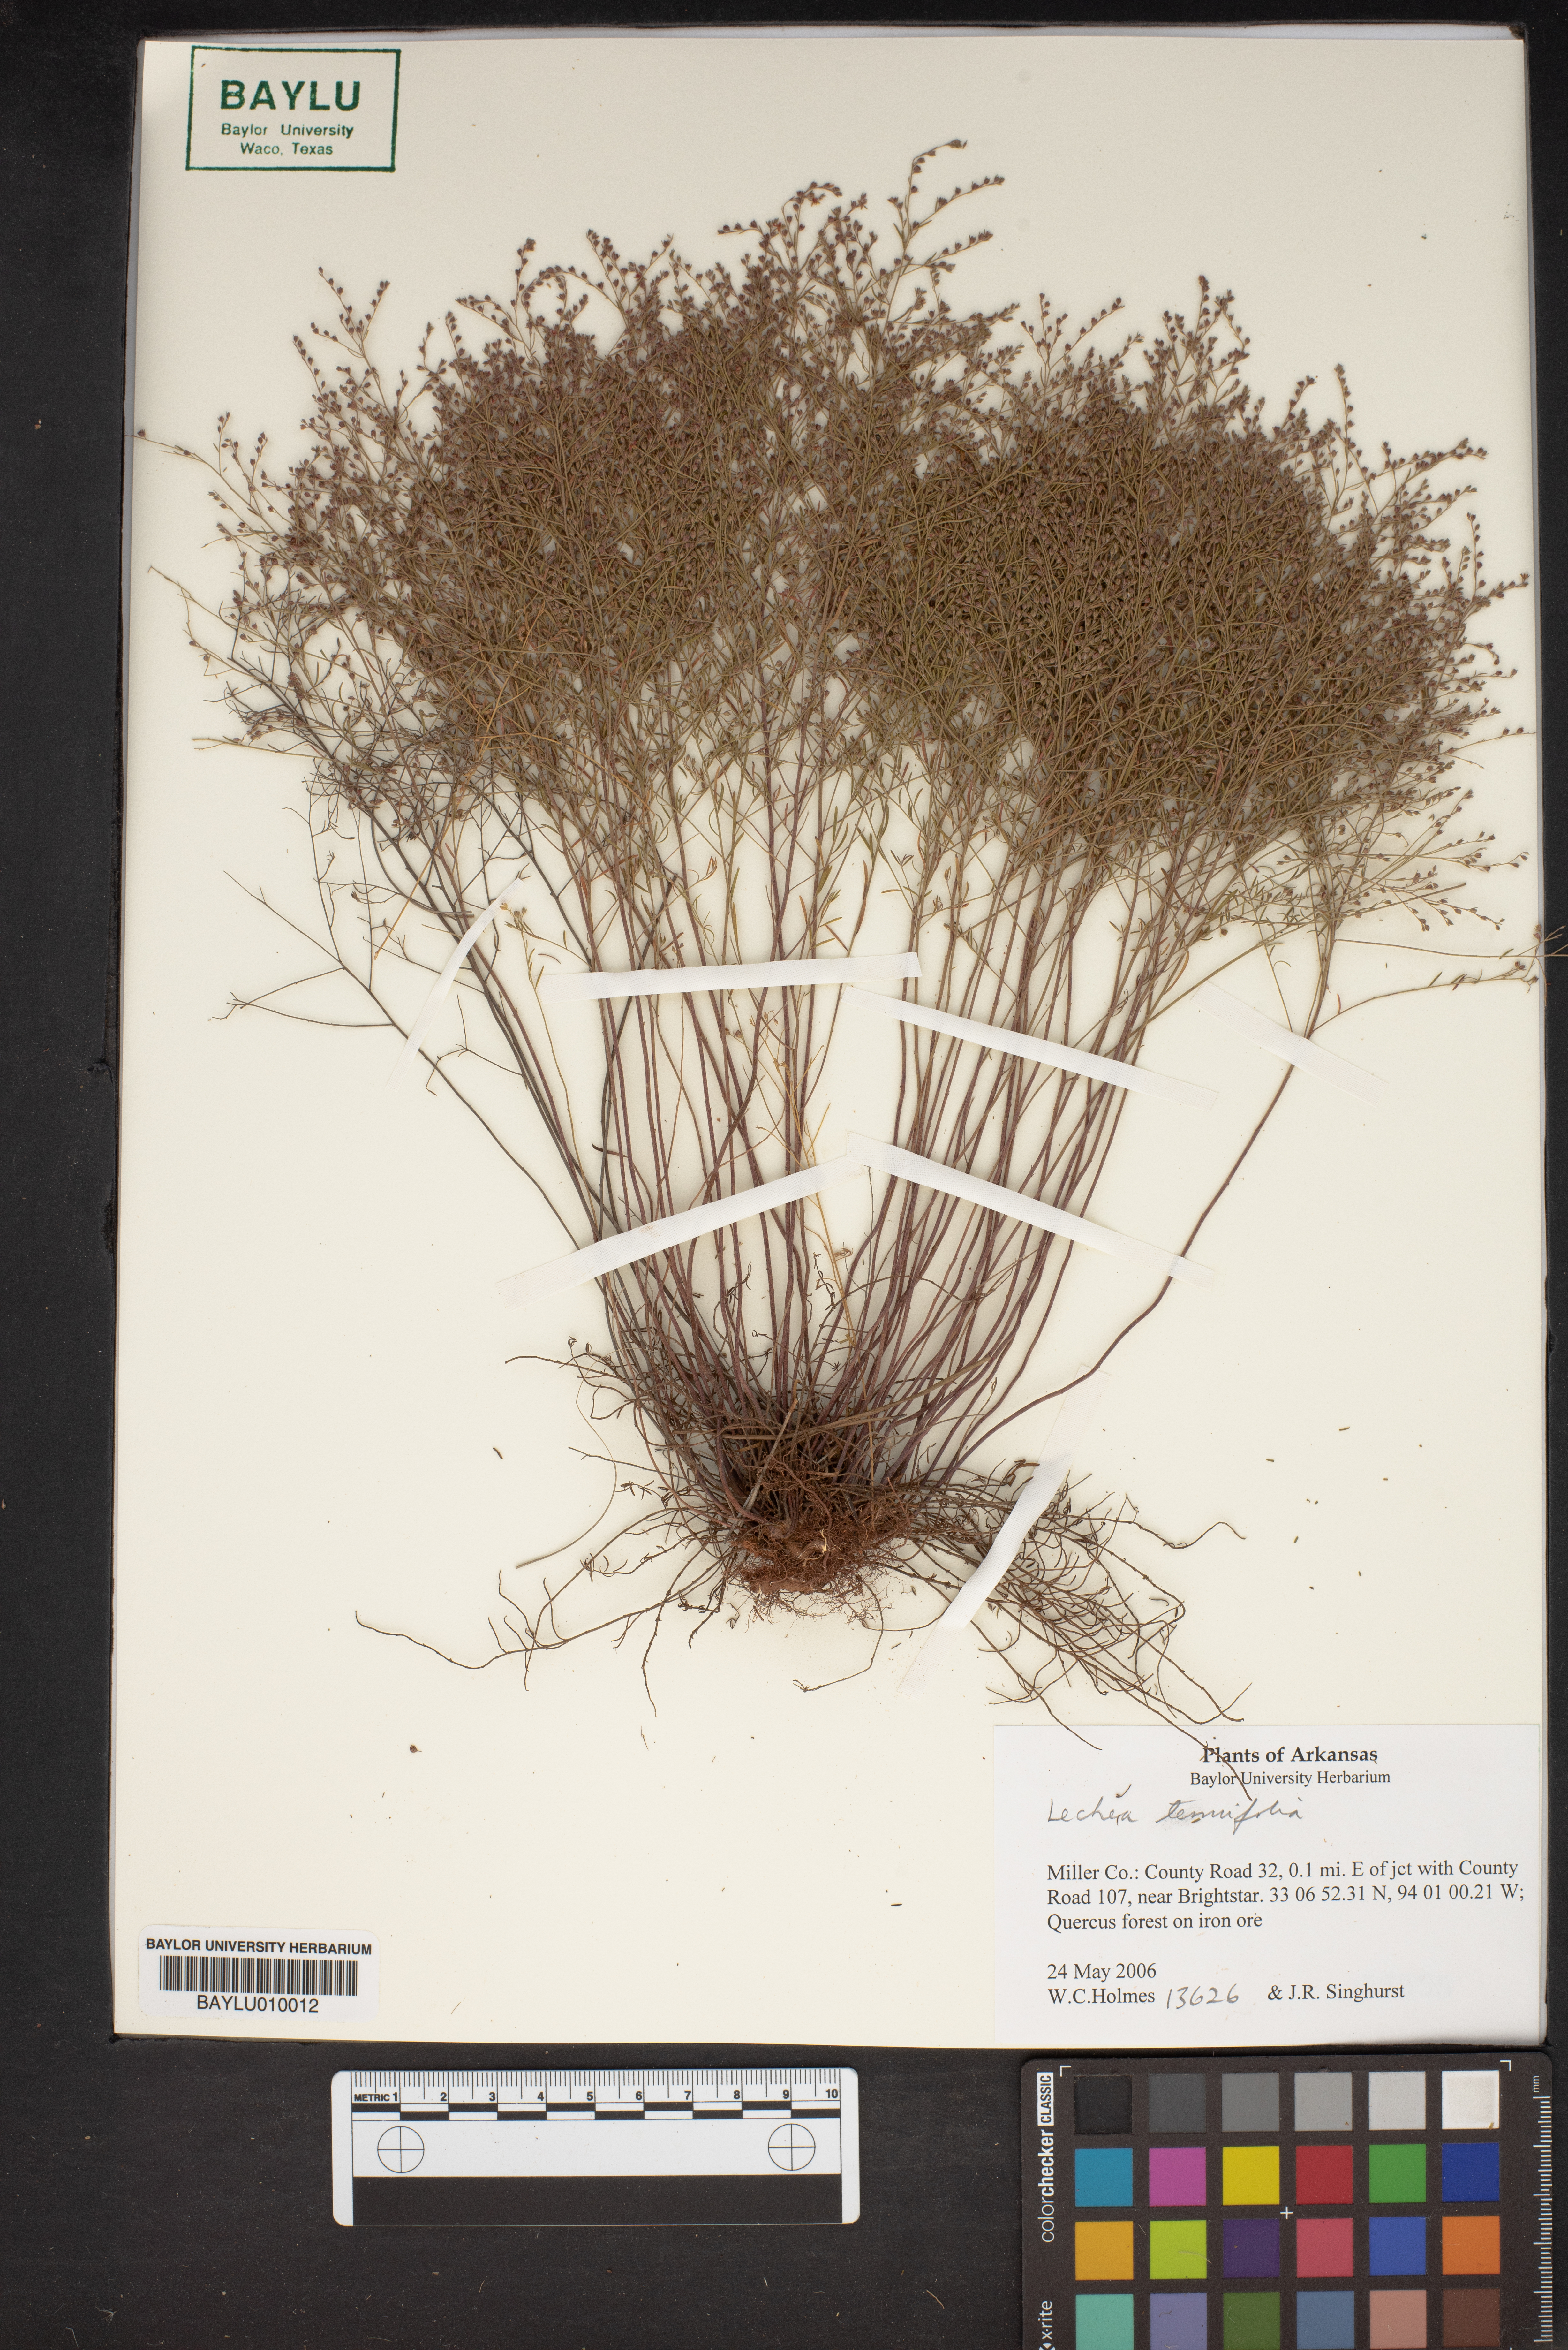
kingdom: Plantae
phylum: Tracheophyta
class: Magnoliopsida
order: Malvales
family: Cistaceae
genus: Lechea
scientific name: Lechea tenuifolia
